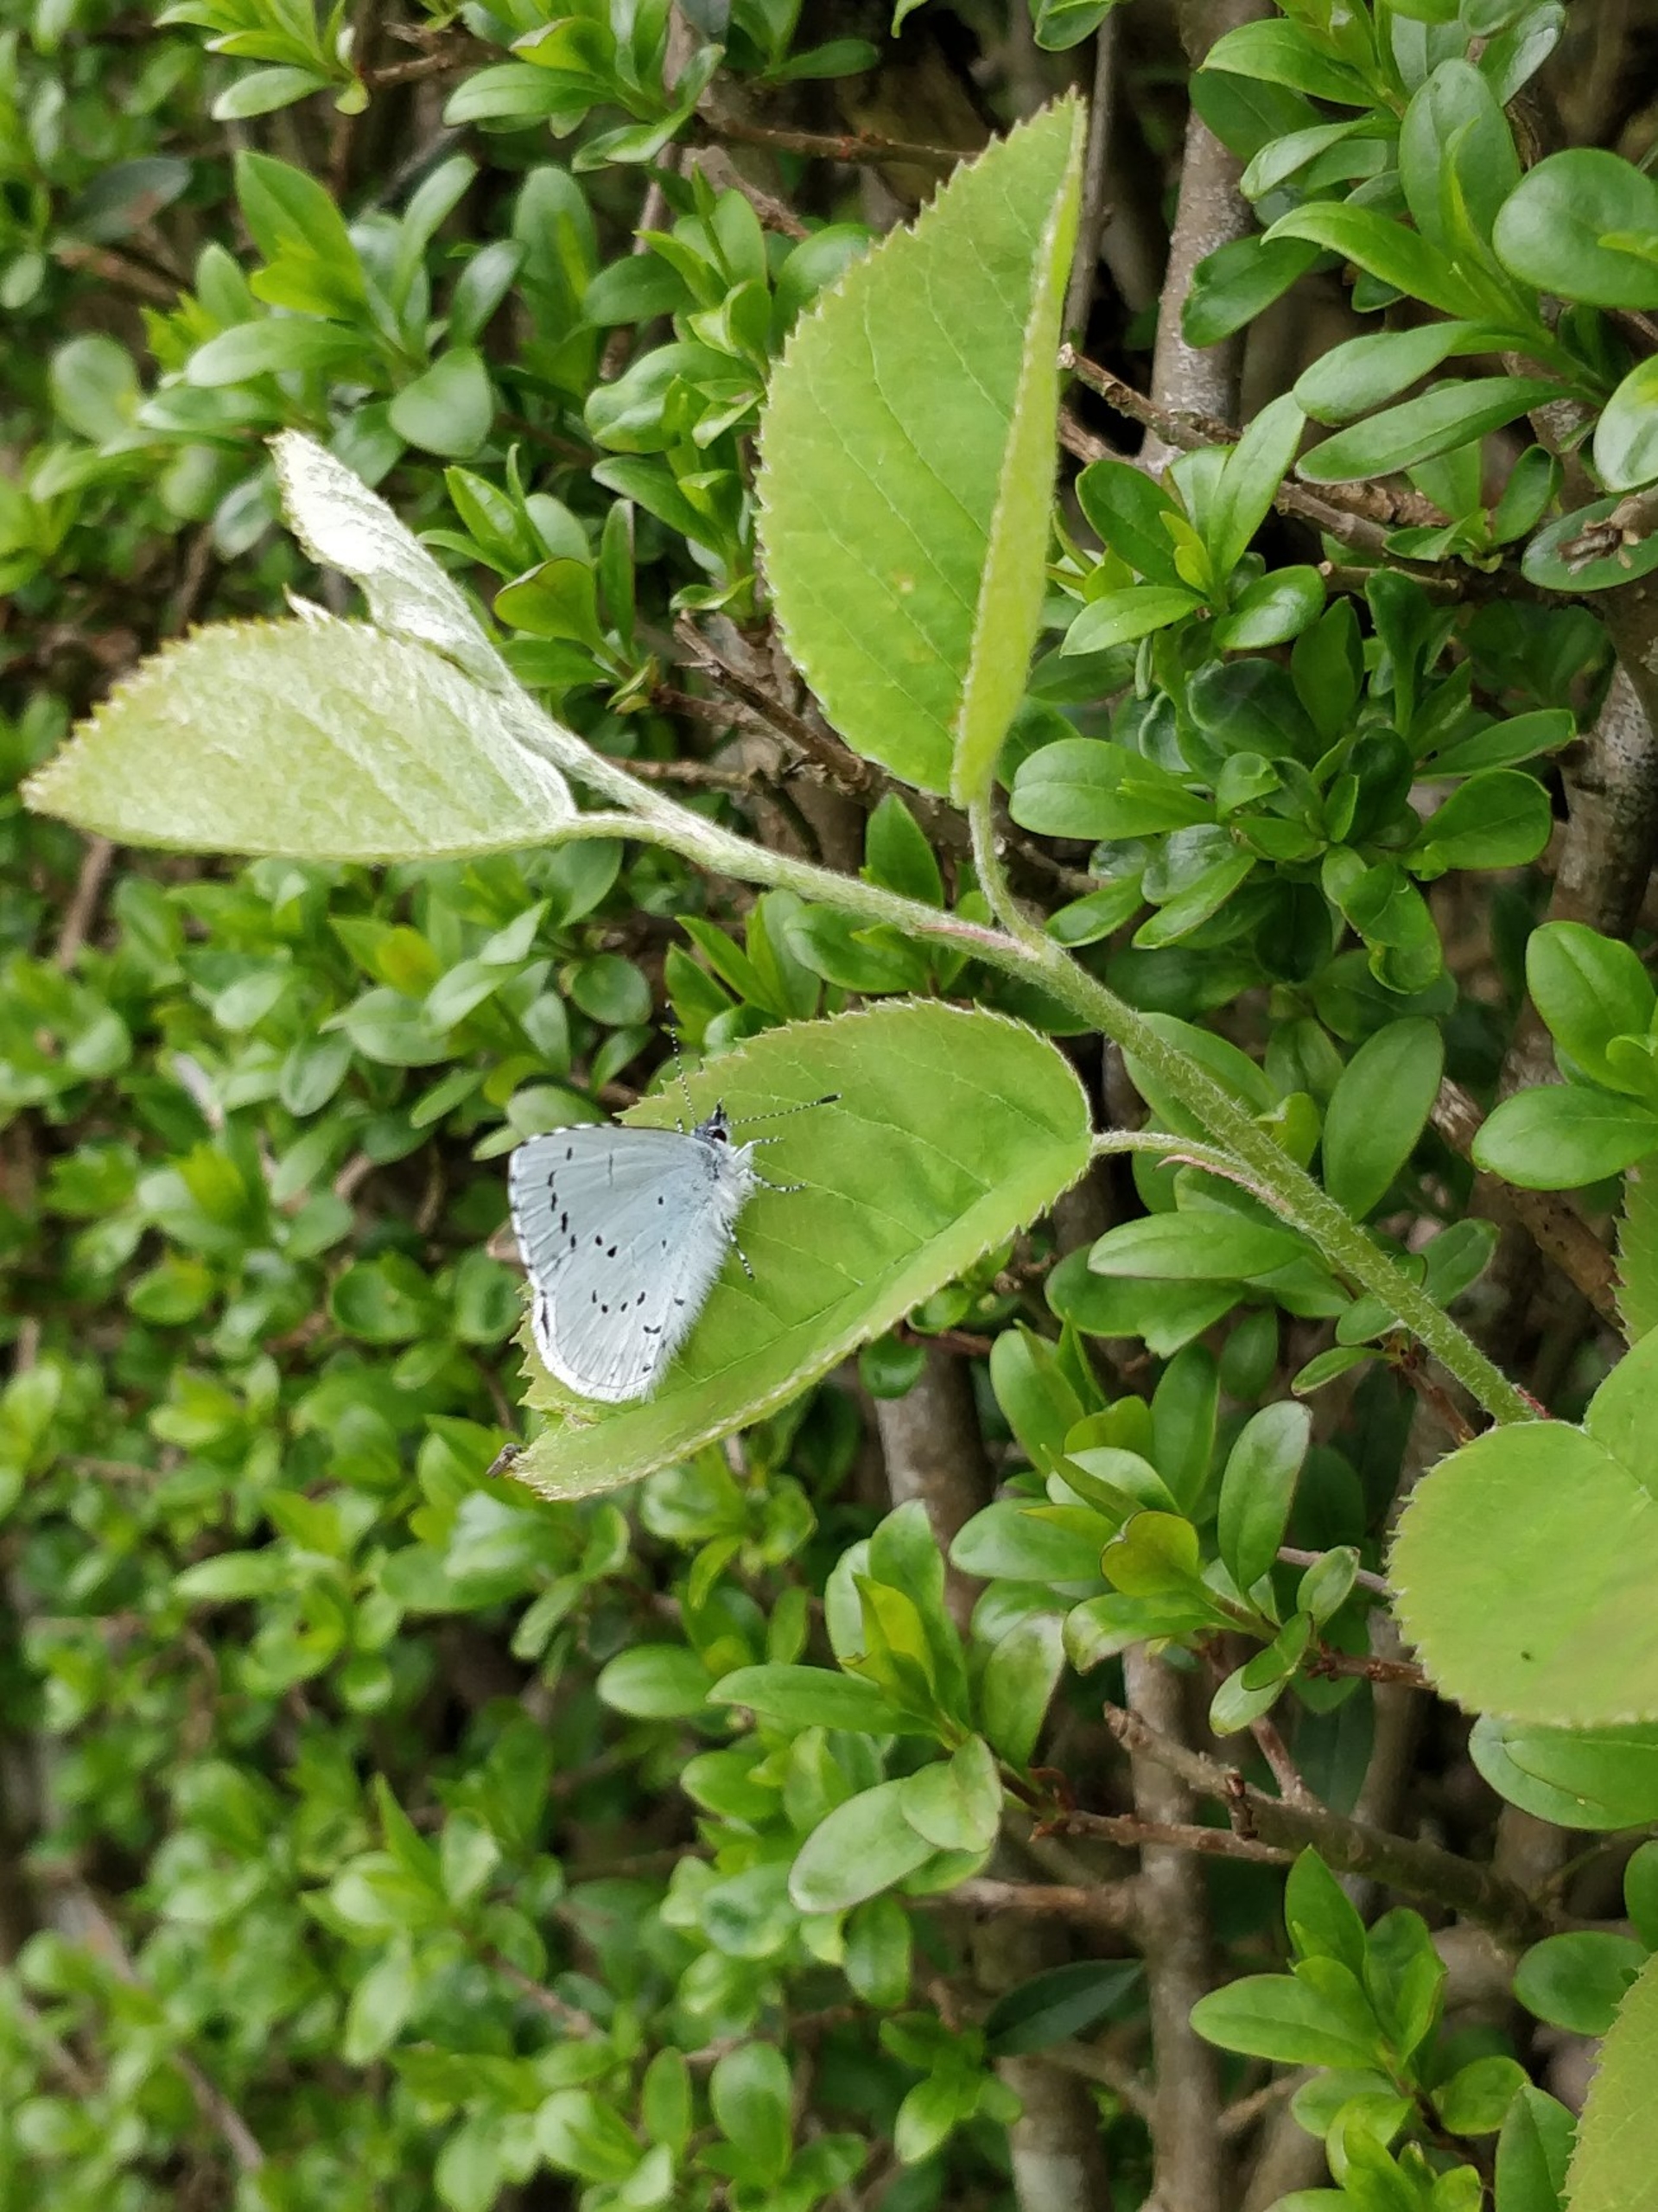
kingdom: Animalia
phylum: Arthropoda
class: Insecta
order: Lepidoptera
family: Lycaenidae
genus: Celastrina
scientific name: Celastrina argiolus
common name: Skovblåfugl
